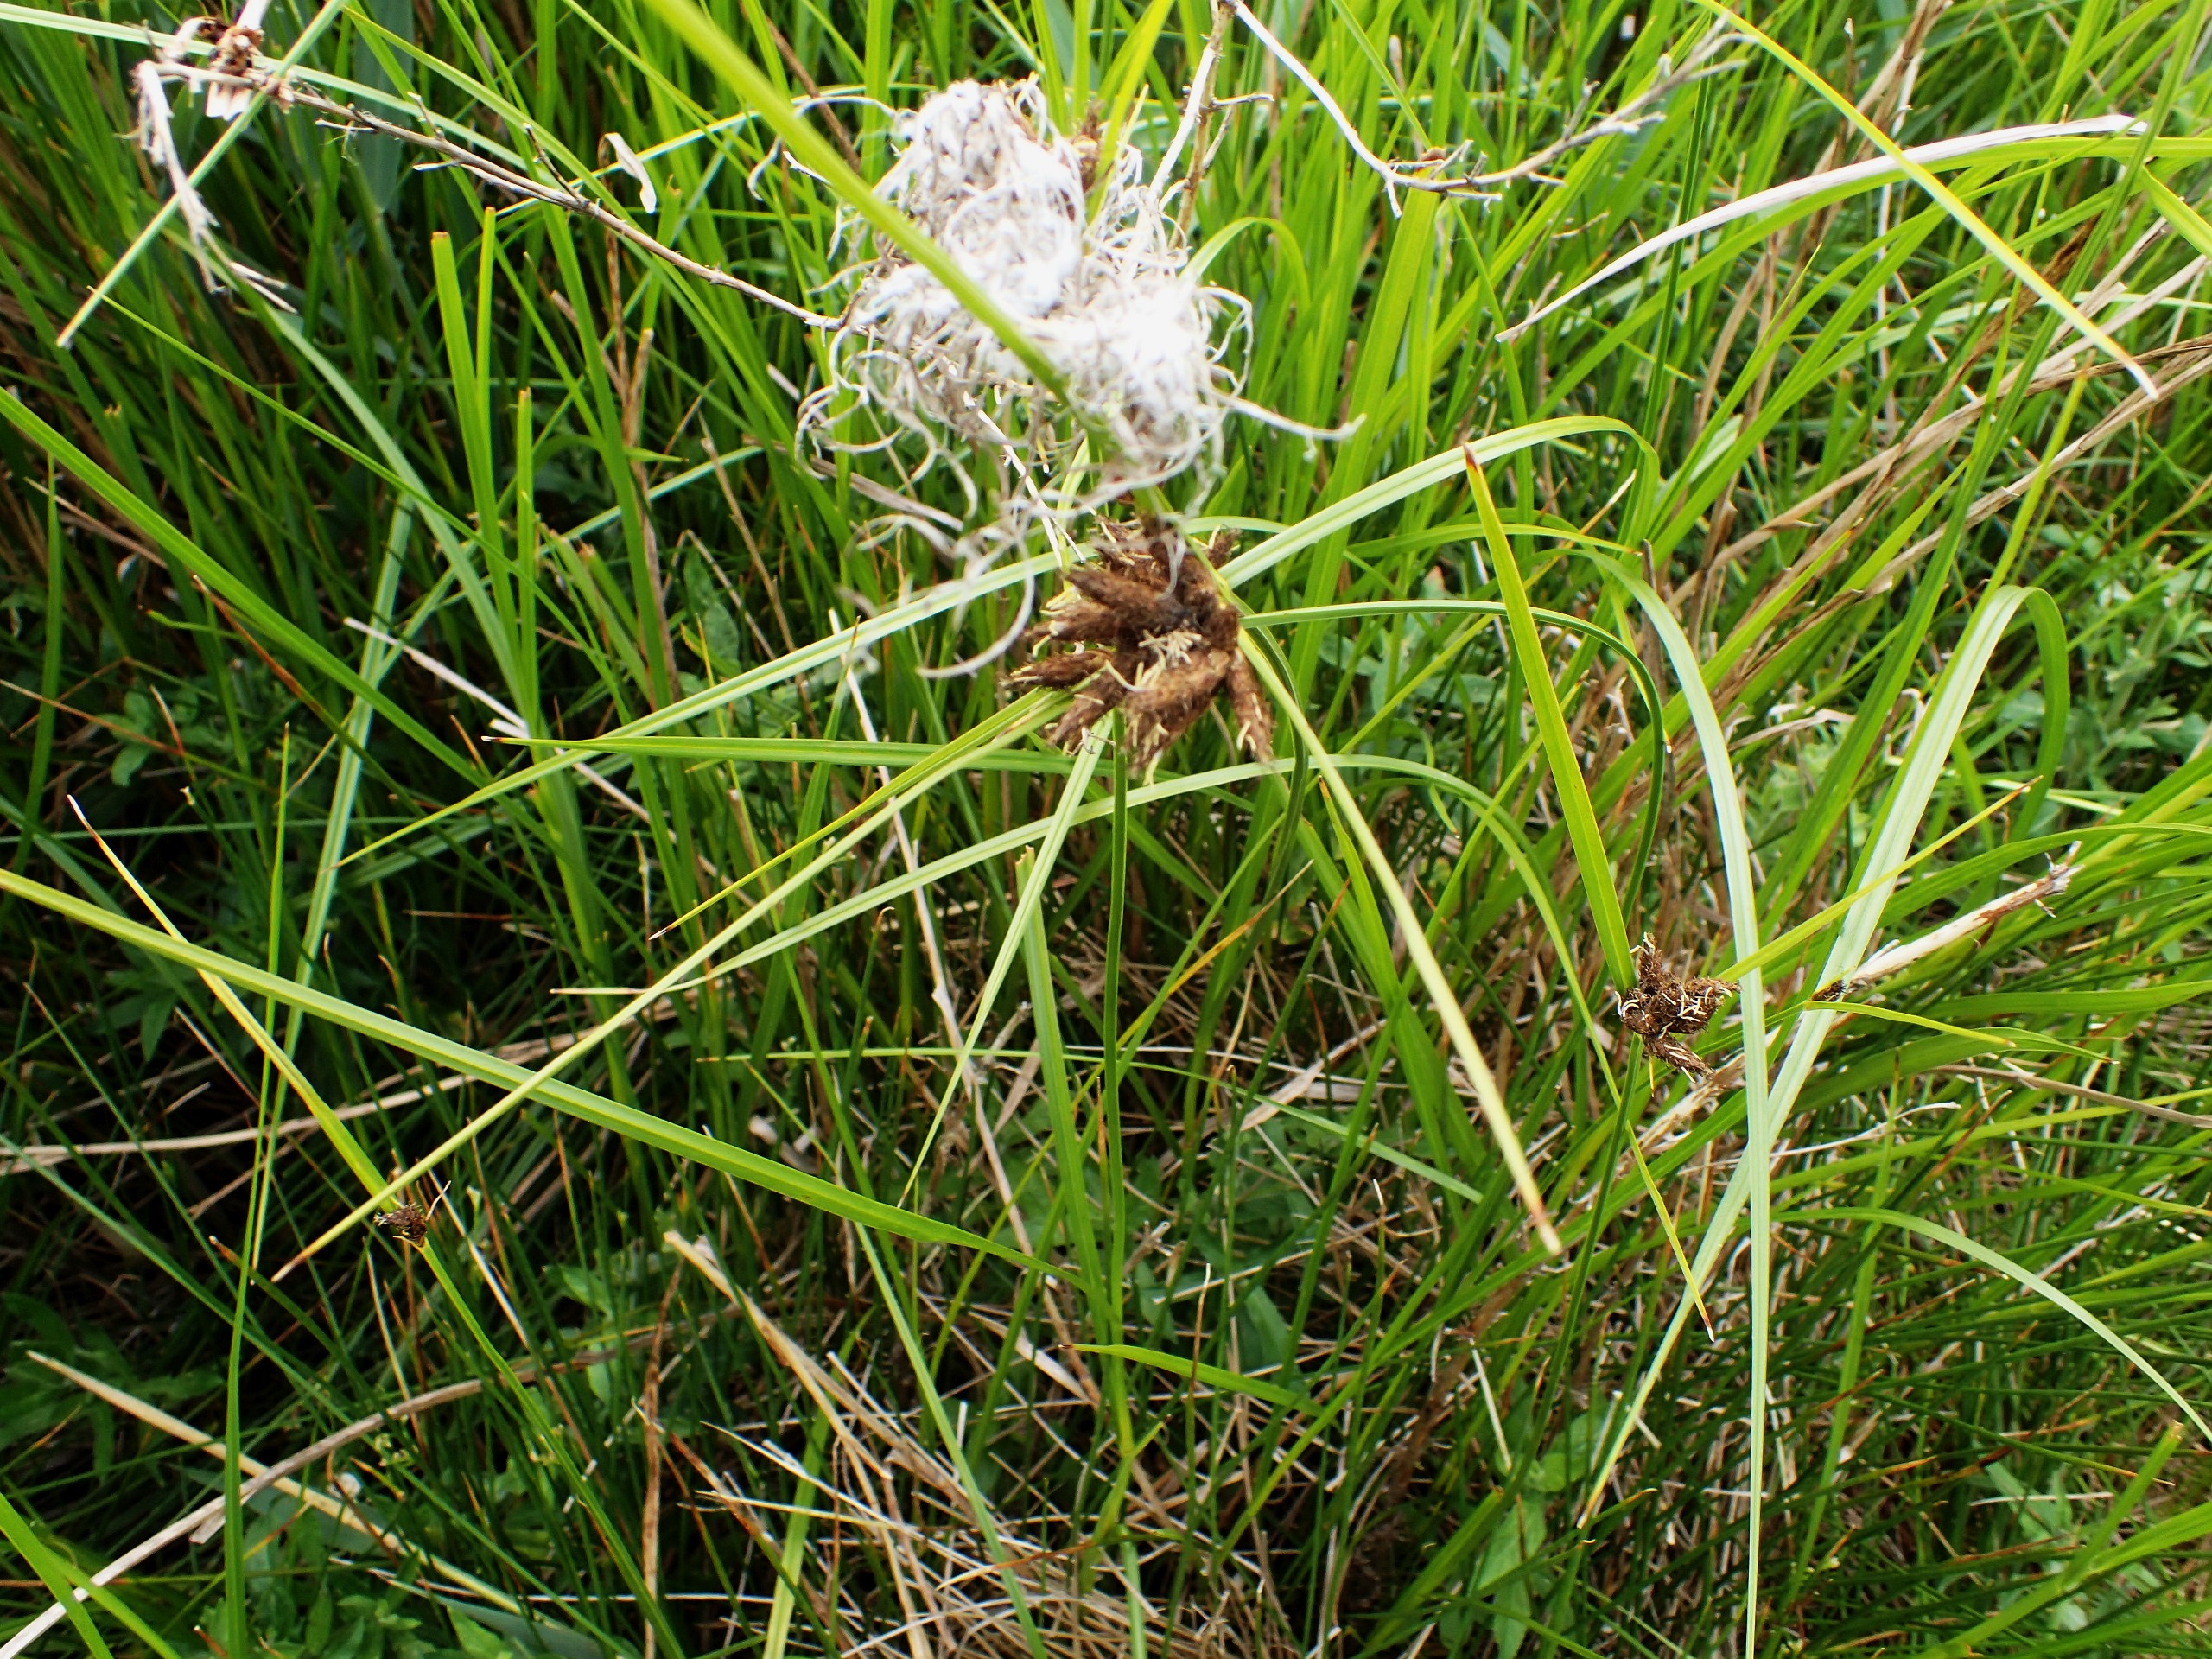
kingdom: Plantae
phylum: Tracheophyta
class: Liliopsida
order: Poales
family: Cyperaceae
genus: Bolboschoenus
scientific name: Bolboschoenus maritimus
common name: Strand-kogleaks
